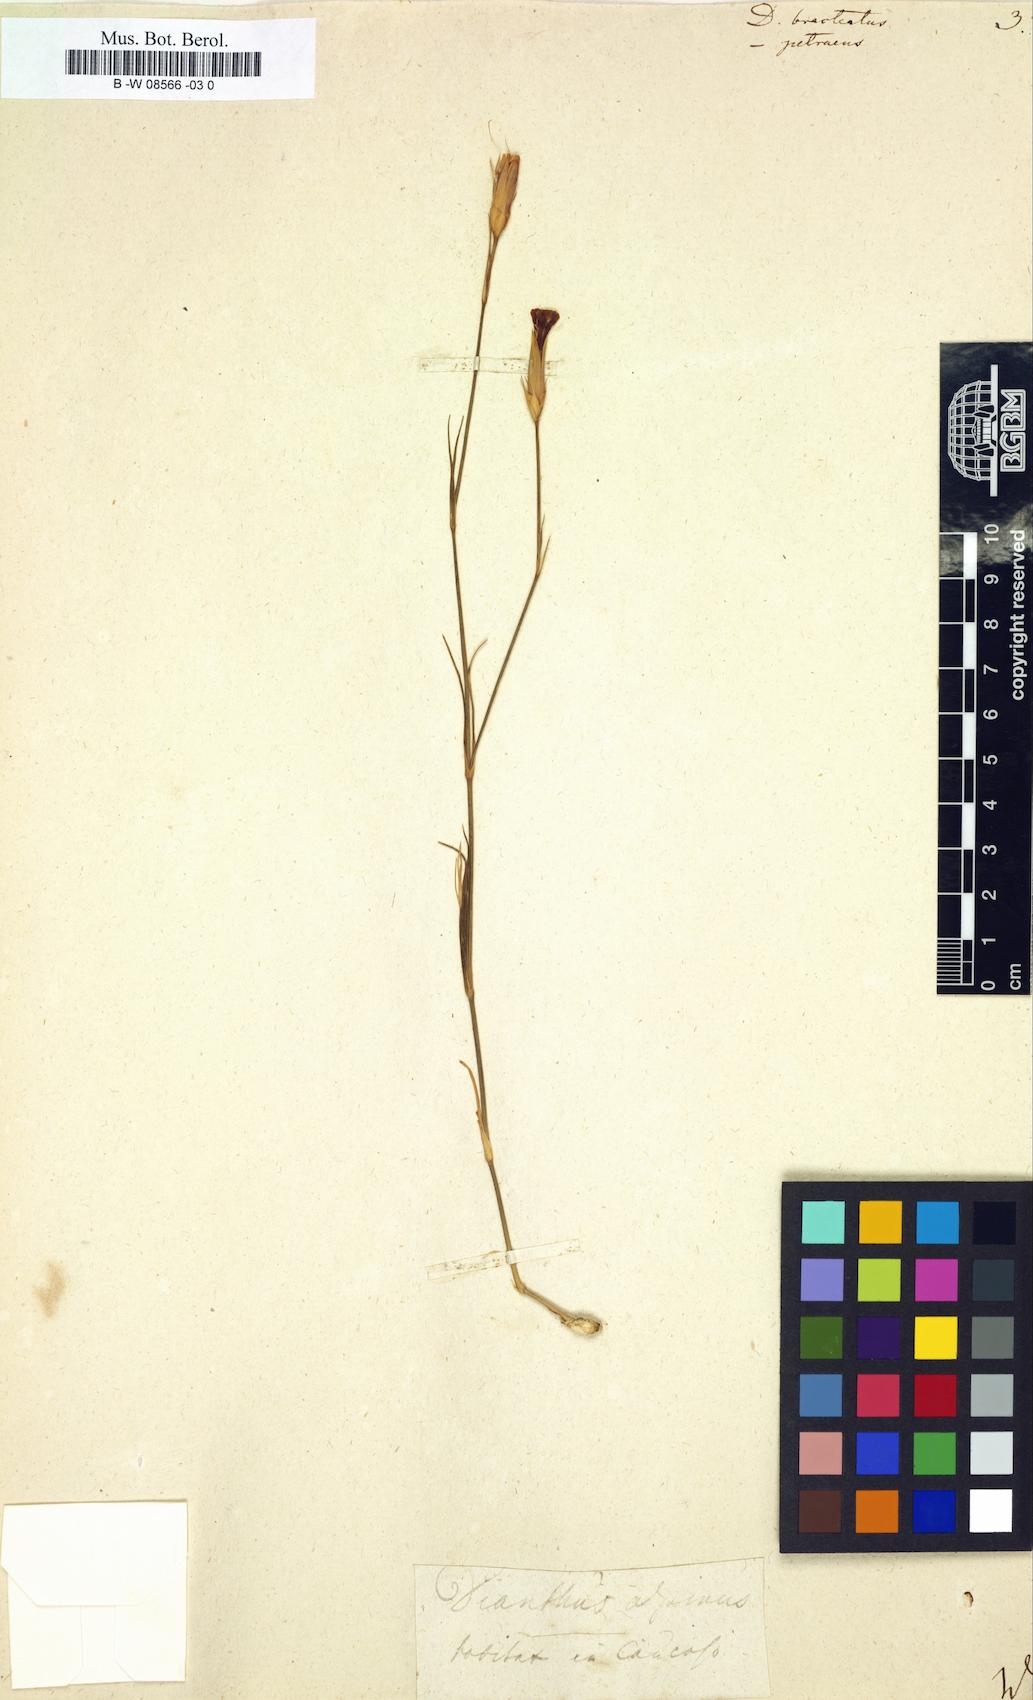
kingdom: Plantae
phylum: Tracheophyta
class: Magnoliopsida
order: Caryophyllales
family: Caryophyllaceae
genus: Dianthus
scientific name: Dianthus cretaceus
